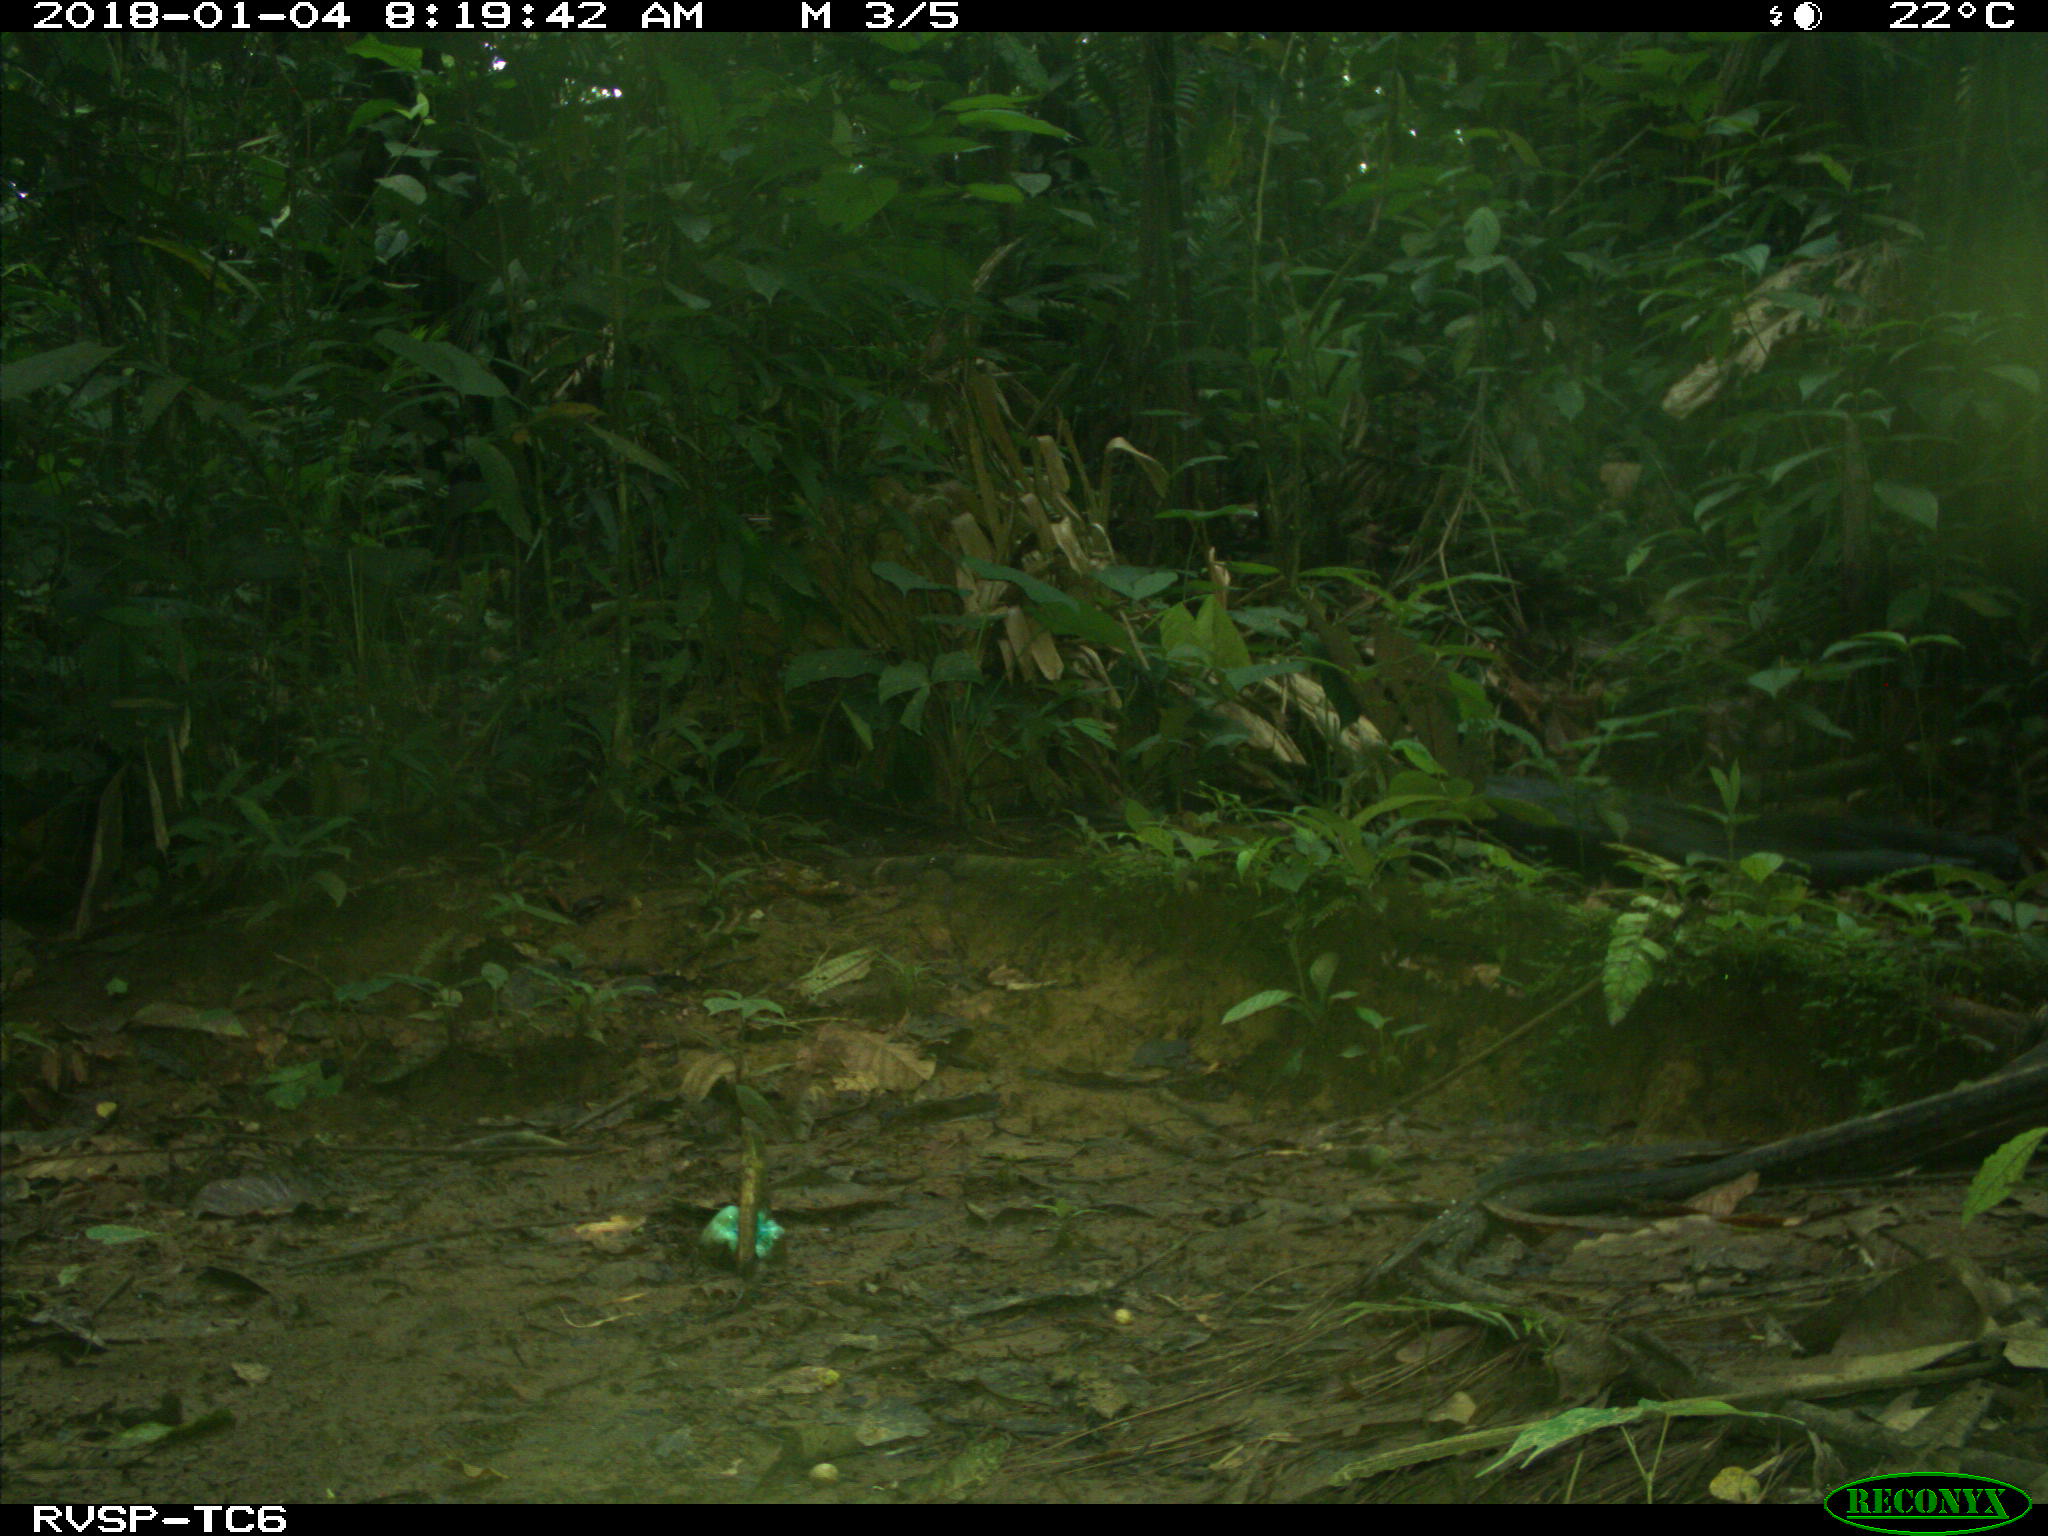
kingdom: Animalia
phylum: Chordata
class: Mammalia
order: Rodentia
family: Sciuridae
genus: Sciurus
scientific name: Sciurus granatensis
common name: Red-tailed squirrel
